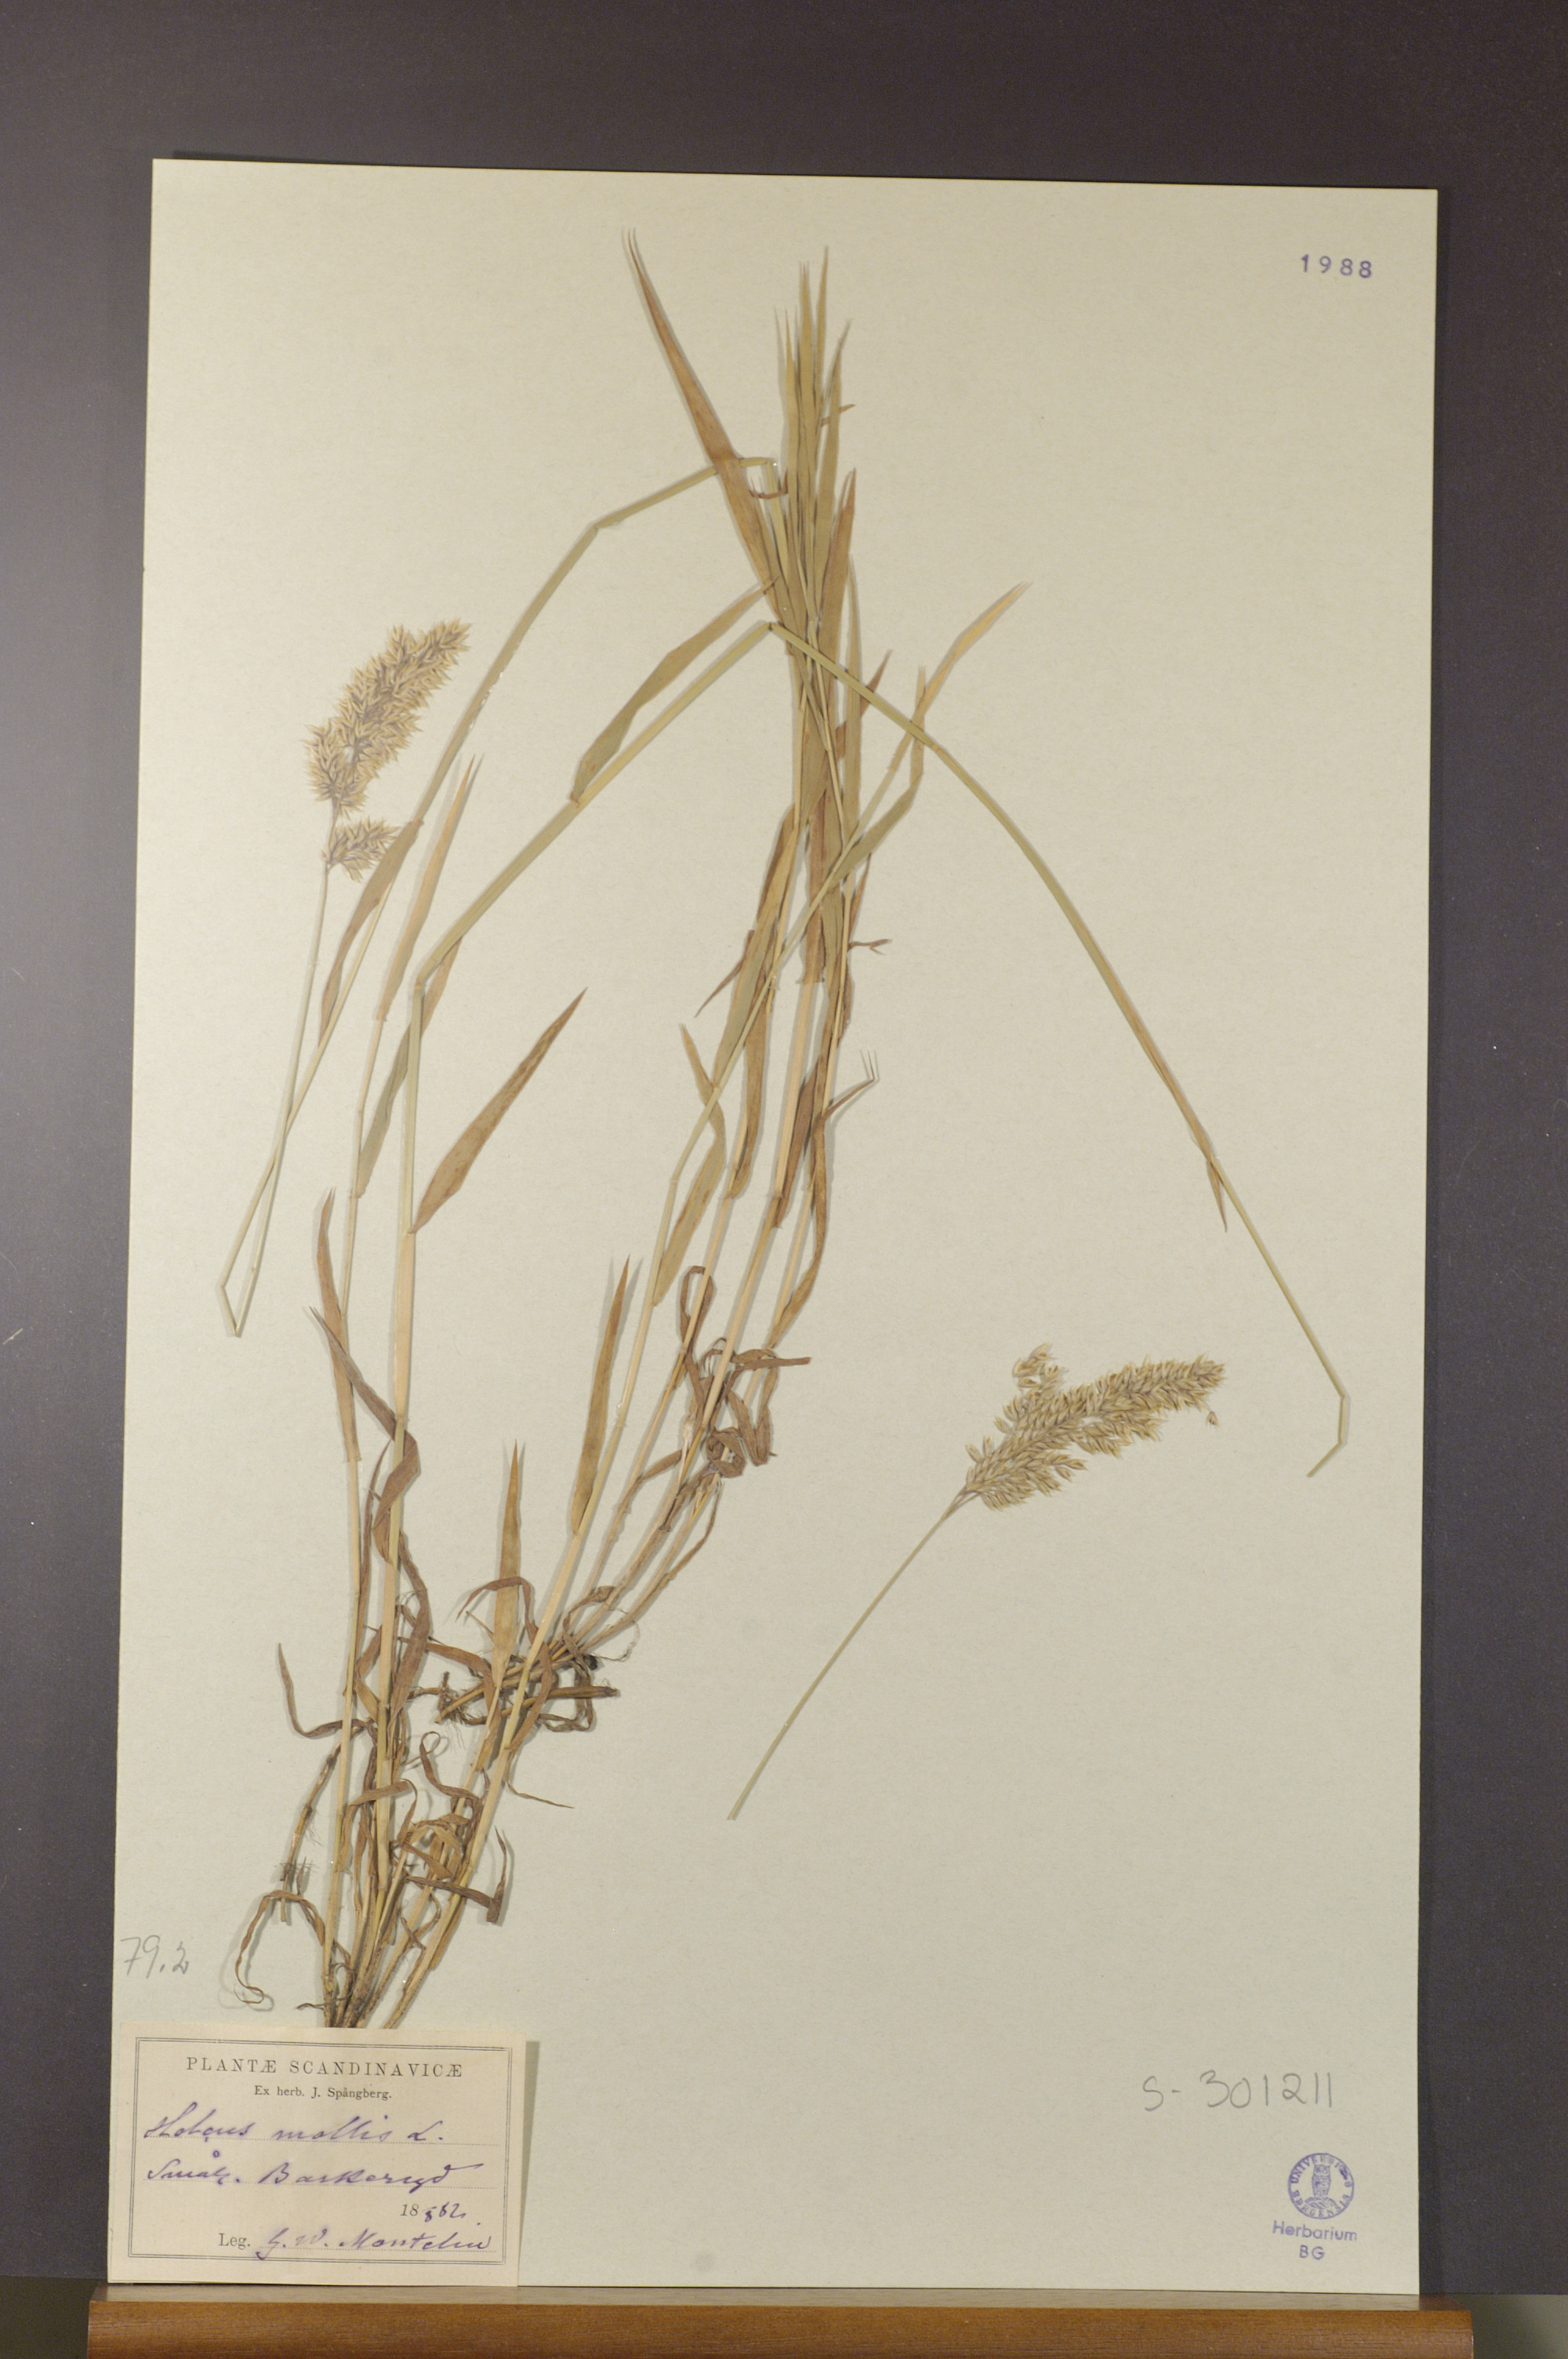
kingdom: Plantae
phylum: Tracheophyta
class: Liliopsida
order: Poales
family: Poaceae
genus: Holcus
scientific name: Holcus mollis
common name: Creeping velvetgrass
